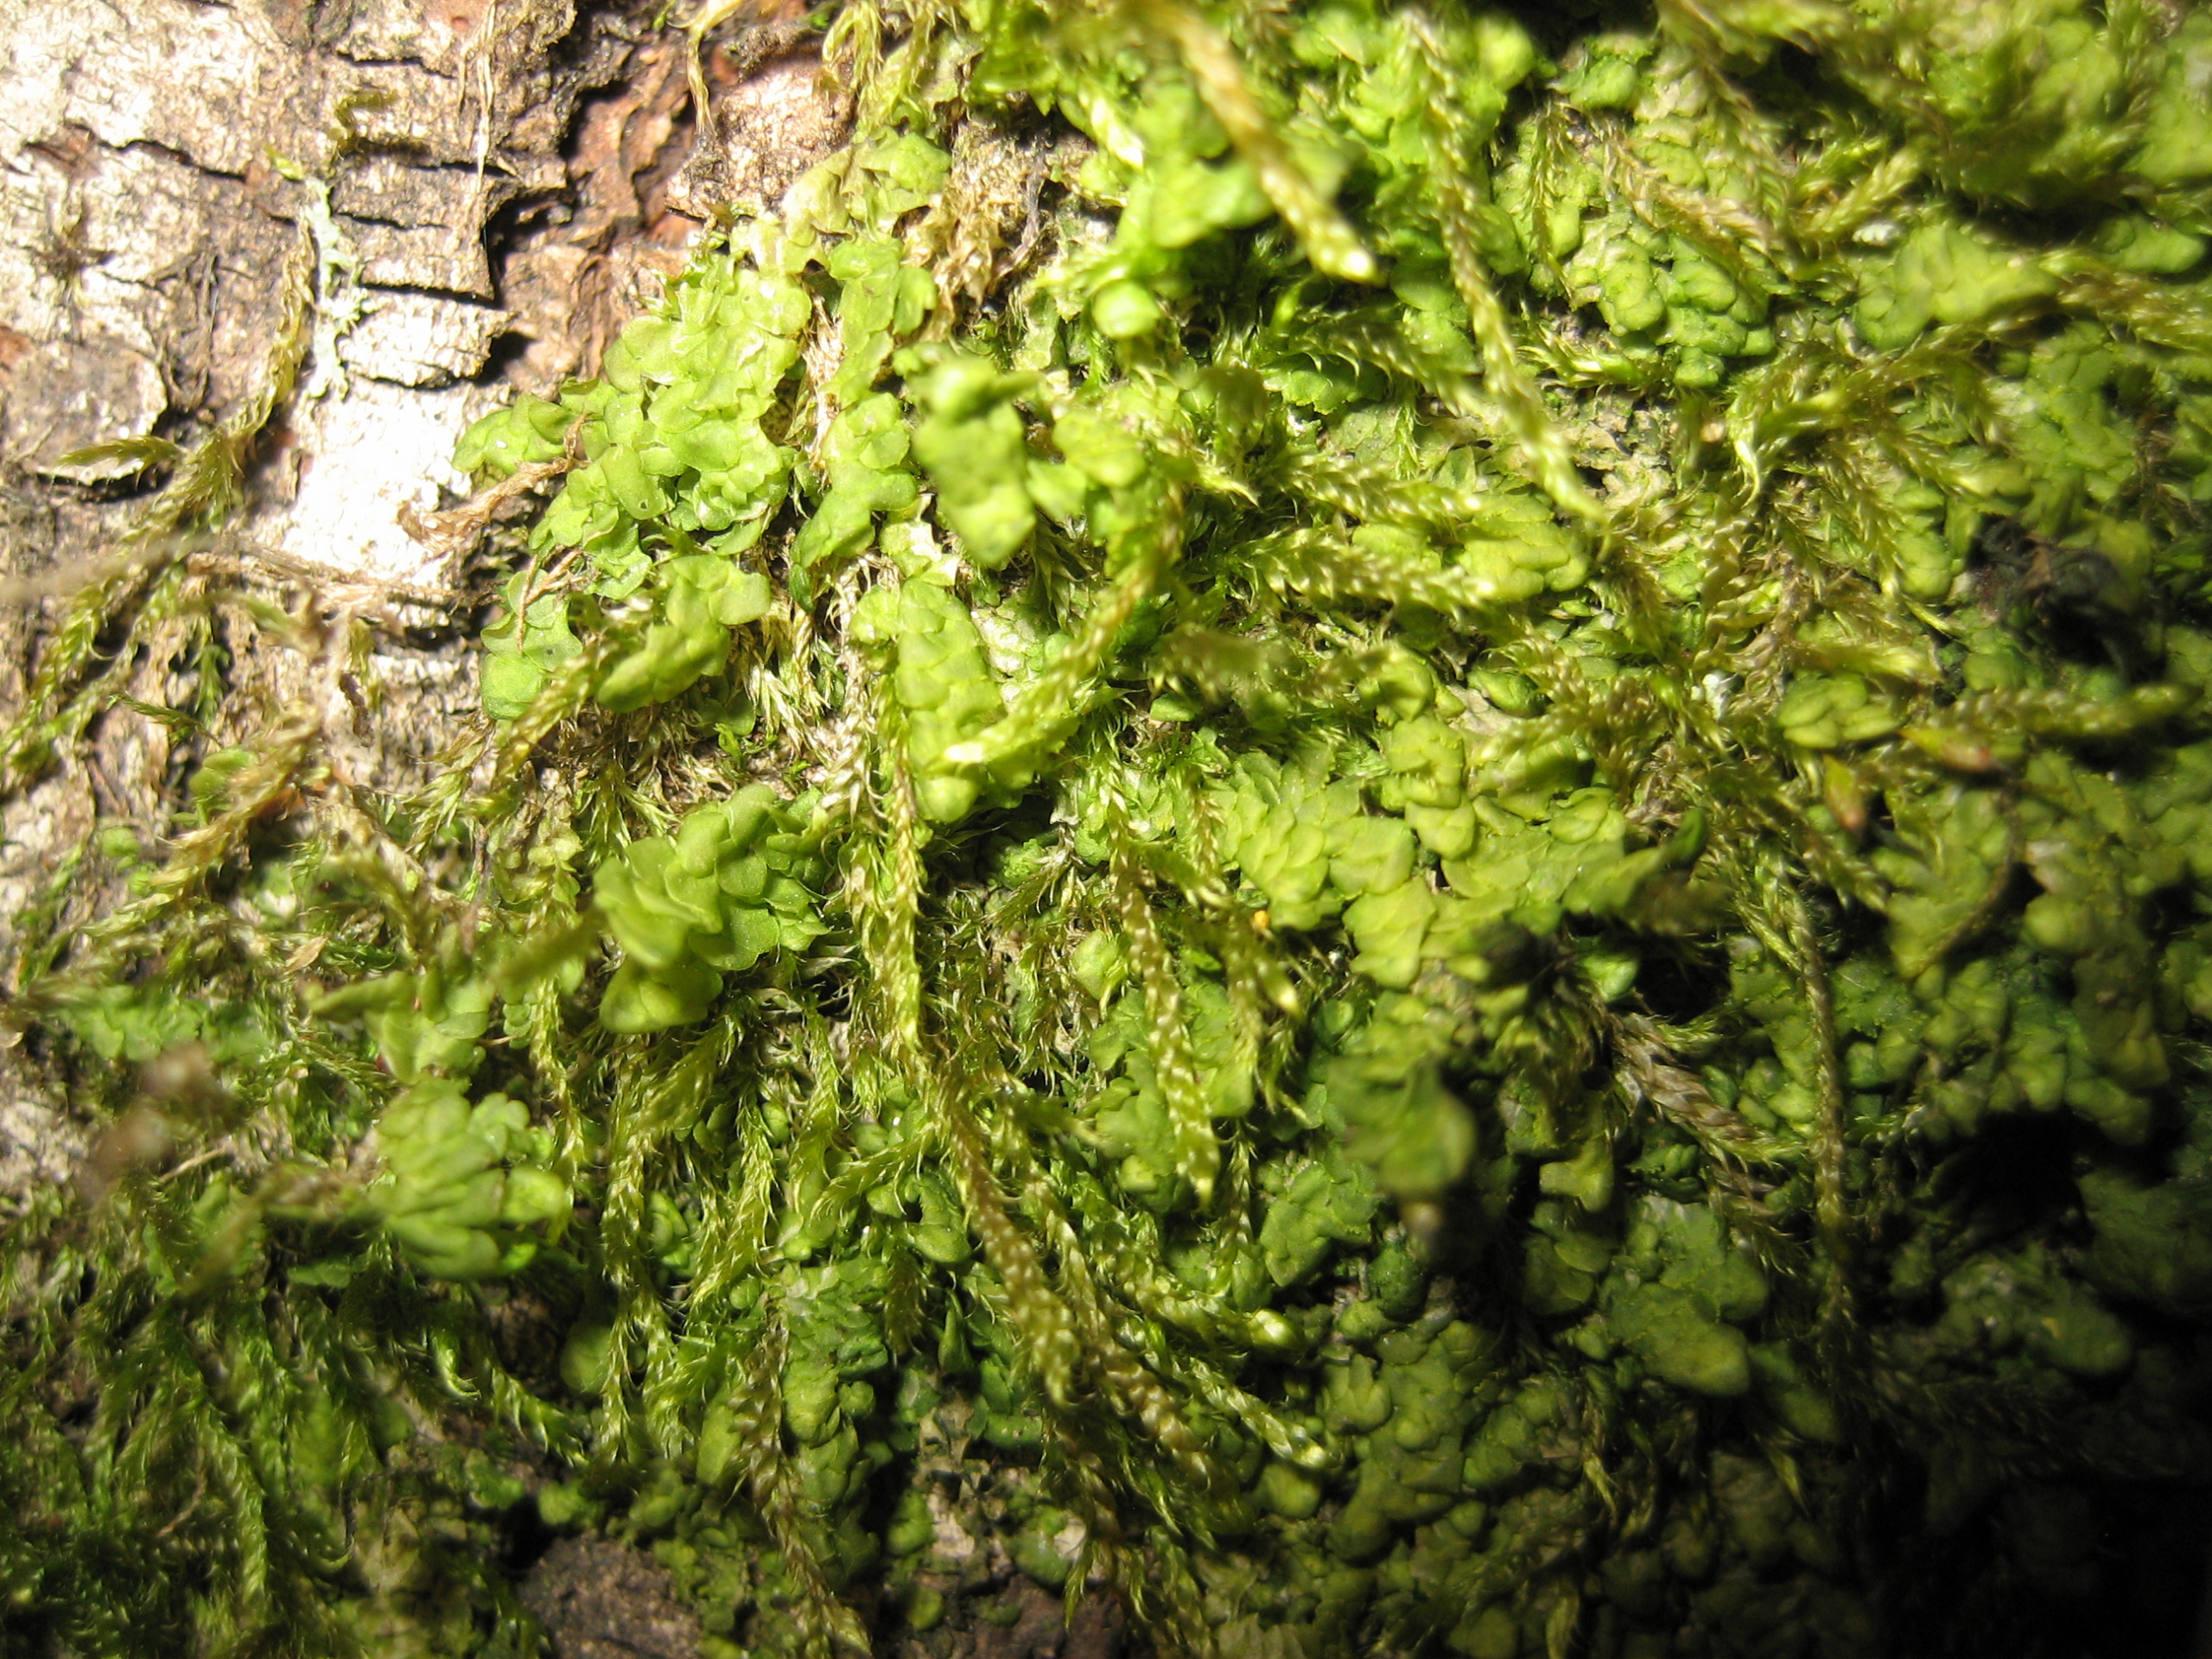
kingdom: Plantae
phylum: Marchantiophyta
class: Jungermanniopsida
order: Porellales
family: Radulaceae
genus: Radula
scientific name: Radula complanata
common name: Almindelig spartelmos
